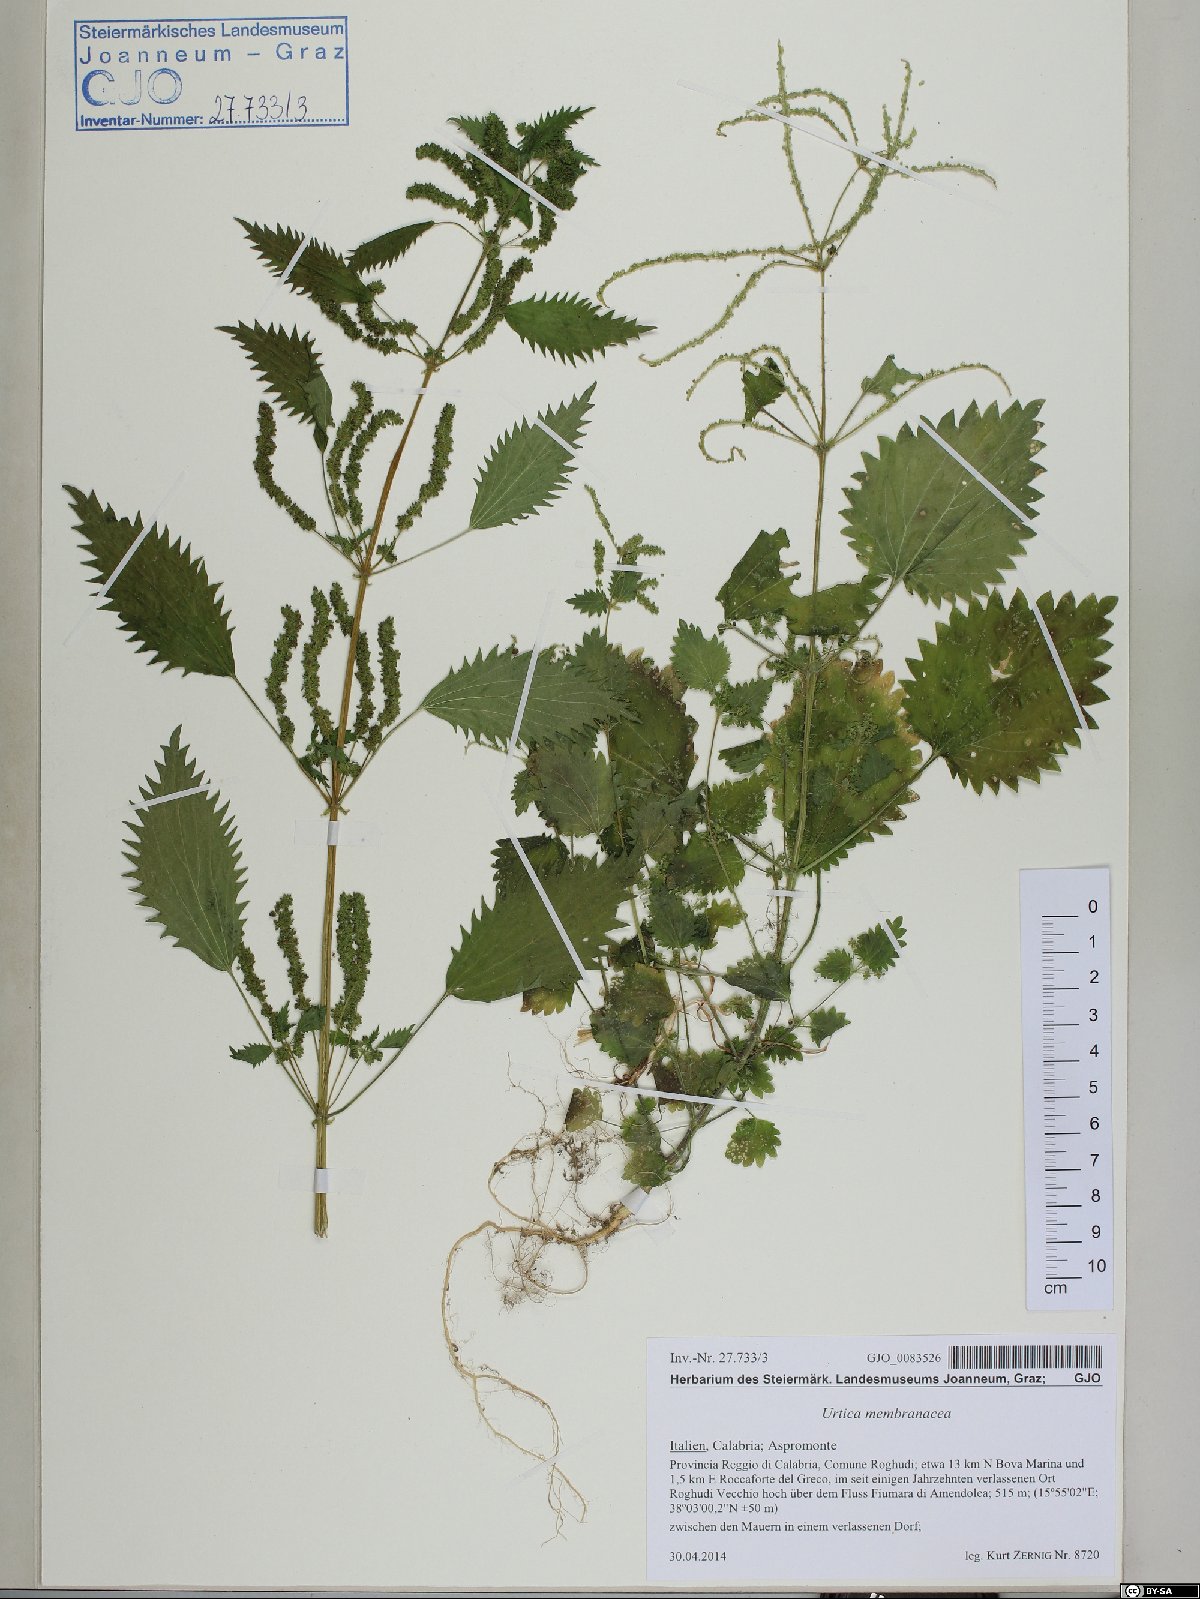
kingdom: Plantae
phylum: Tracheophyta
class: Magnoliopsida
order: Rosales
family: Urticaceae
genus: Urtica
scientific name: Urtica membranacea
